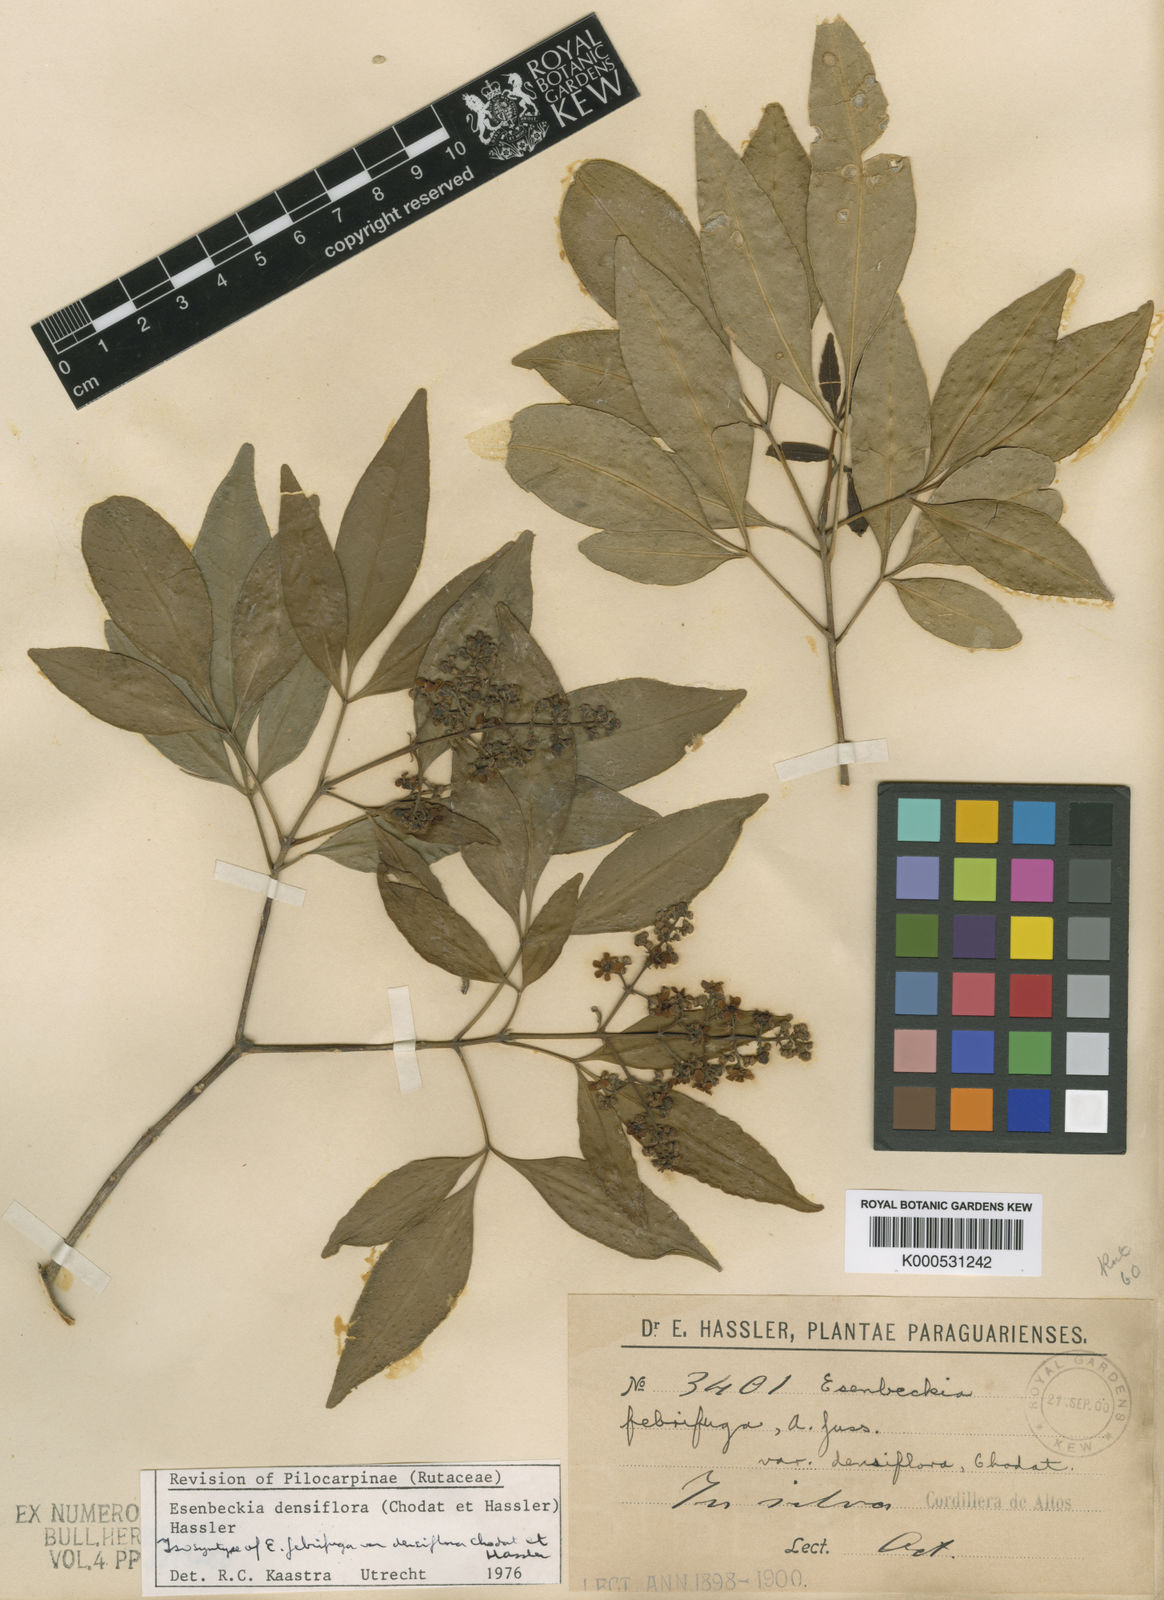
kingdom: Plantae
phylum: Tracheophyta
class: Magnoliopsida
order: Sapindales
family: Rutaceae
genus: Esenbeckia
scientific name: Esenbeckia densiflora
